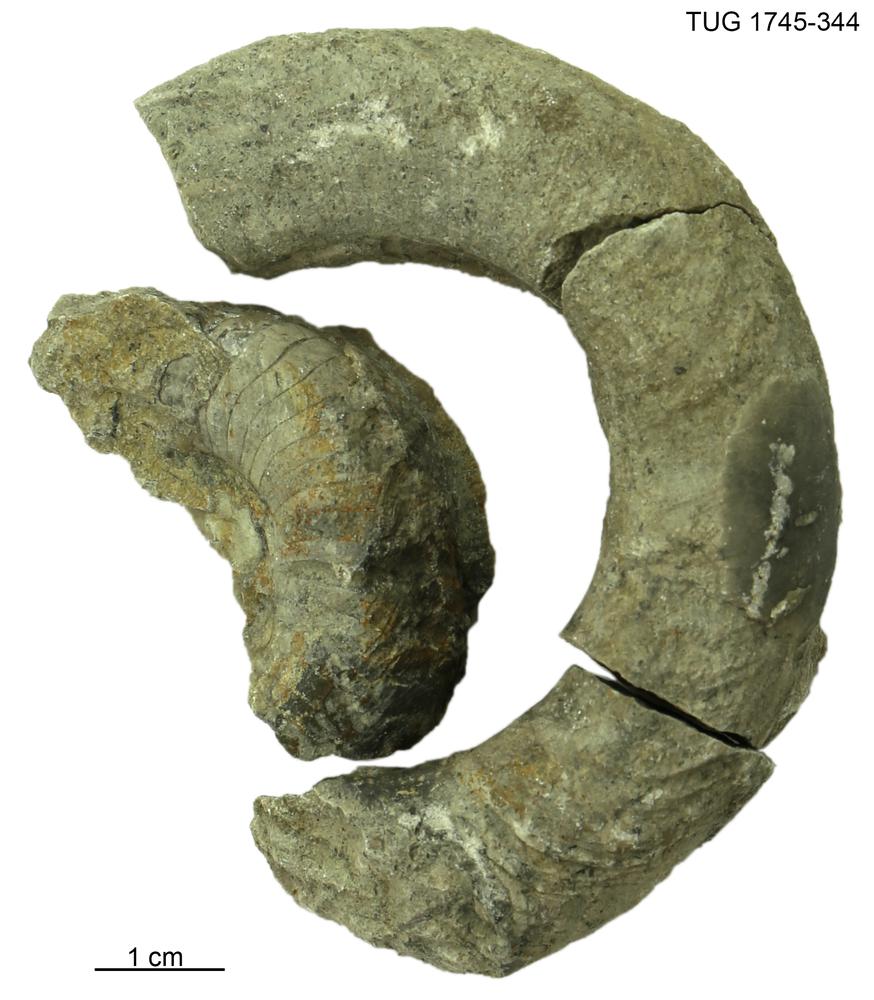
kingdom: Animalia
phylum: Mollusca
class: Cephalopoda
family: Tarphyceratidae
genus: Rectanguloceras
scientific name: Rectanguloceras
